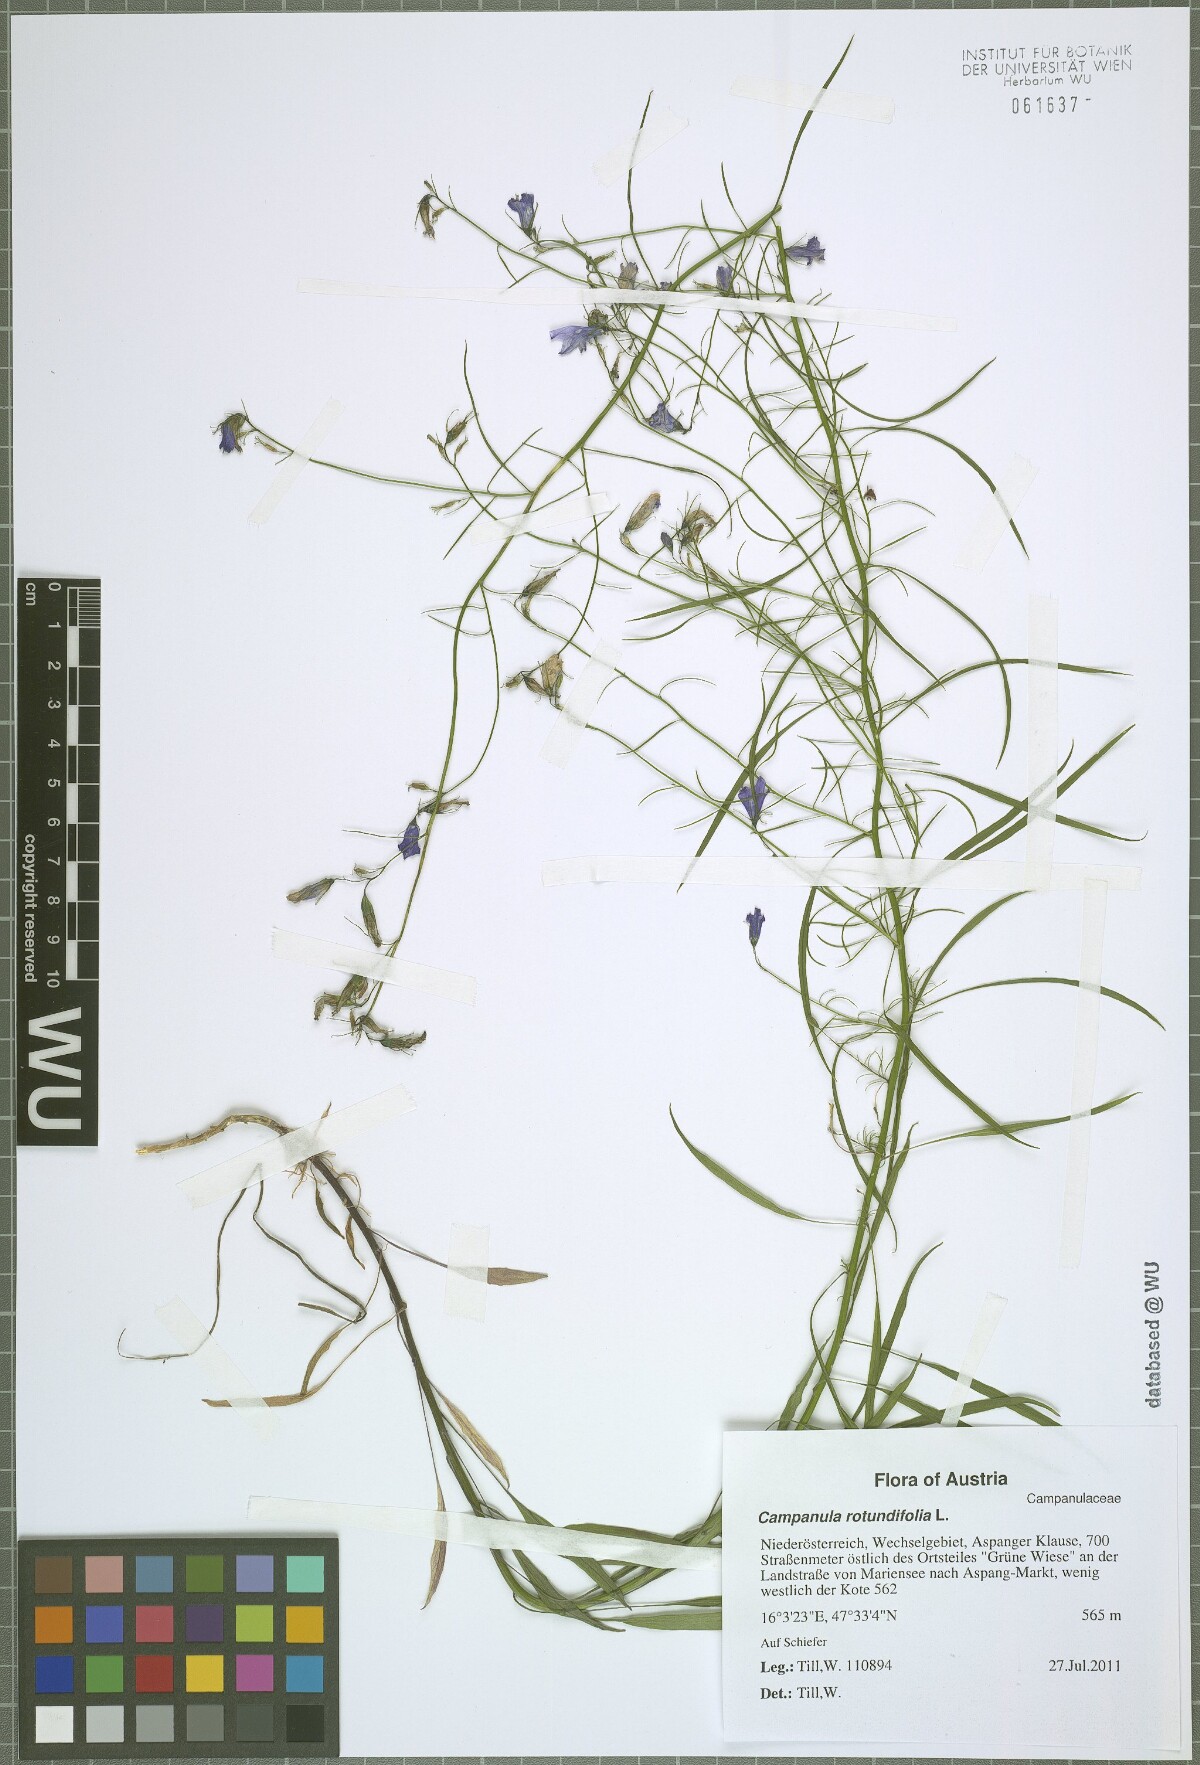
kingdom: Plantae
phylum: Tracheophyta
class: Magnoliopsida
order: Asterales
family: Campanulaceae
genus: Campanula
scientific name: Campanula rotundifolia
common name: Harebell
